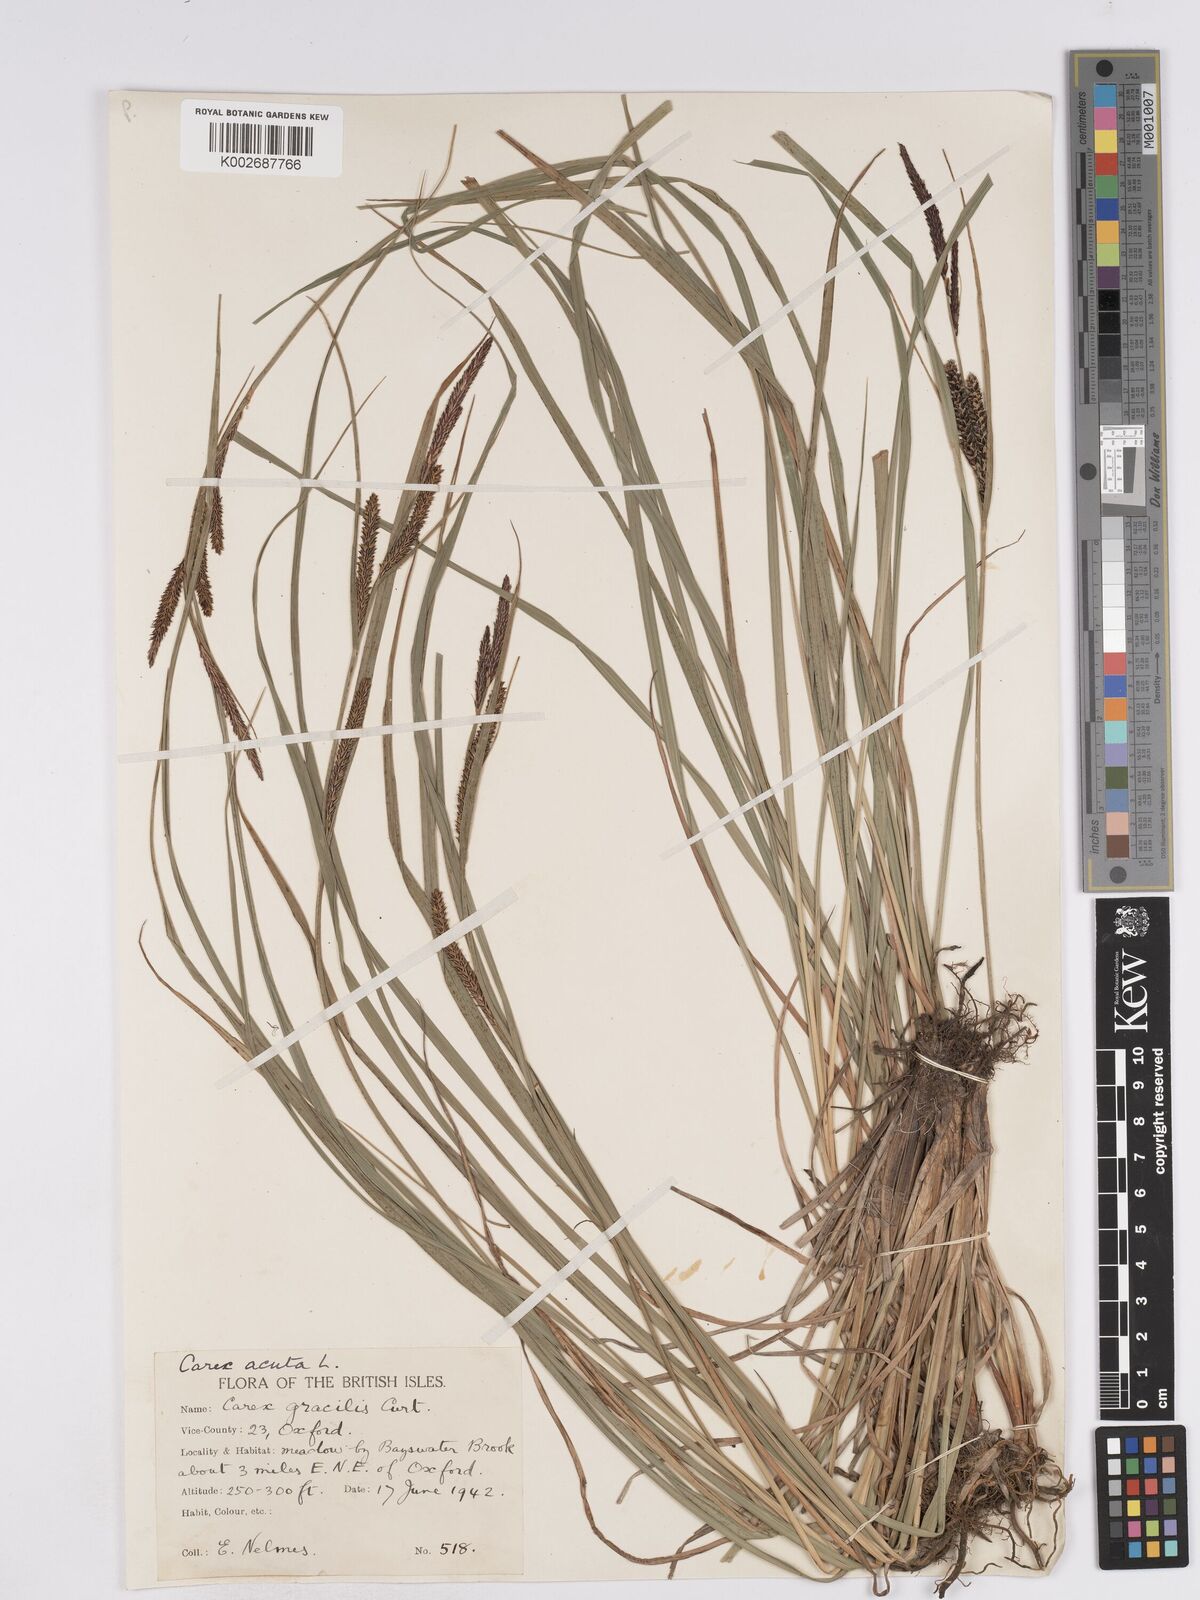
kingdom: Plantae
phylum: Tracheophyta
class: Liliopsida
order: Poales
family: Cyperaceae
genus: Carex
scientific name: Carex acuta
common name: Slender tufted-sedge
